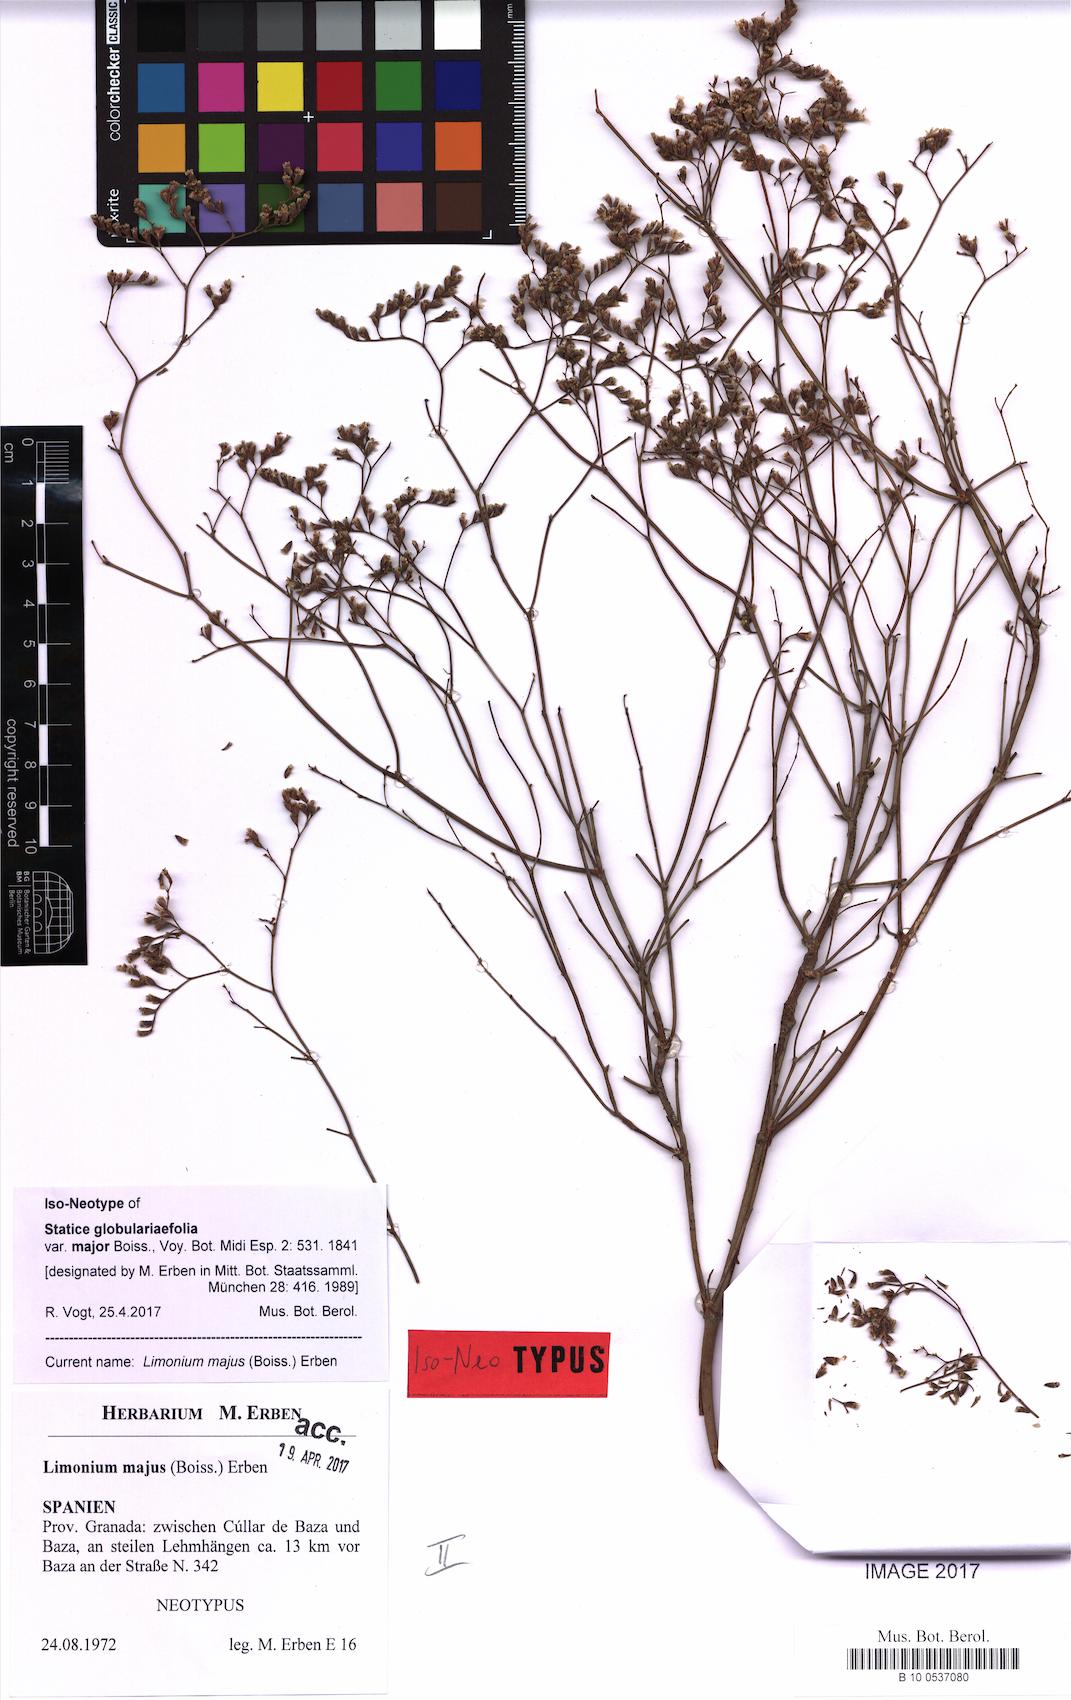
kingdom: Plantae
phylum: Tracheophyta
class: Magnoliopsida
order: Caryophyllales
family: Plumbaginaceae
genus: Limonium
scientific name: Limonium majus
